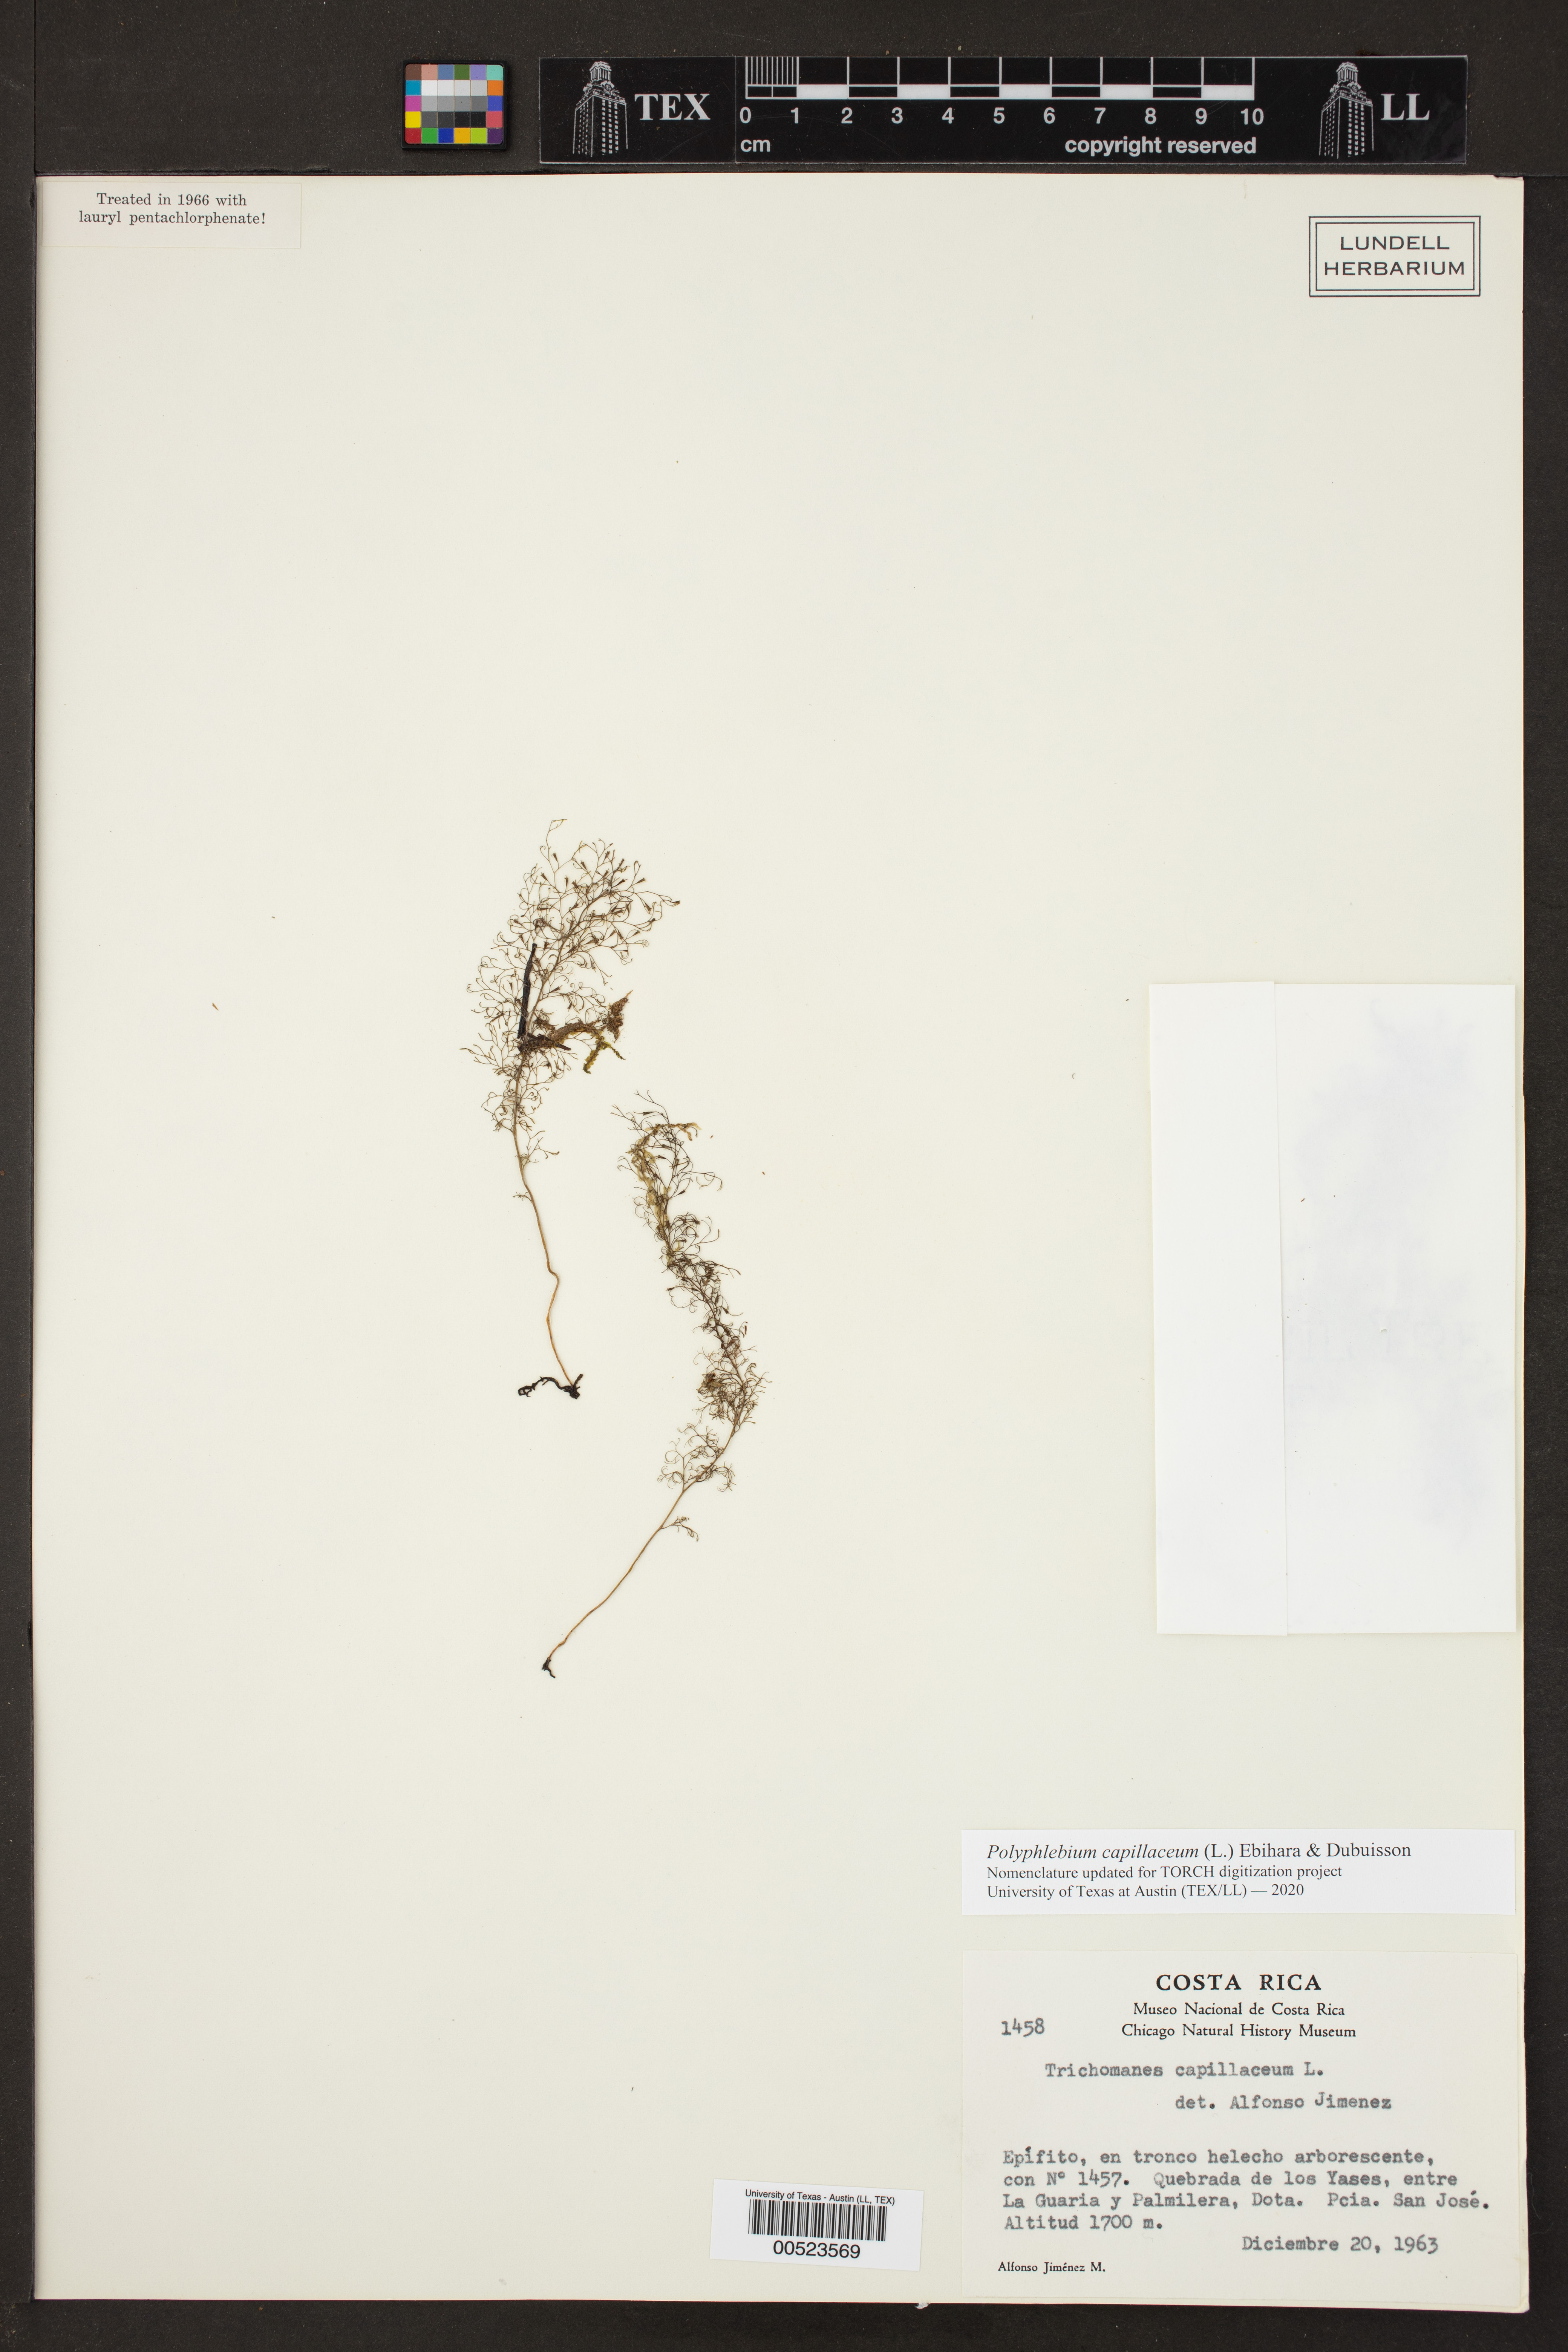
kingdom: Plantae
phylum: Tracheophyta
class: Polypodiopsida
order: Hymenophyllales
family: Hymenophyllaceae
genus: Polyphlebium
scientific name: Polyphlebium capillaceum
